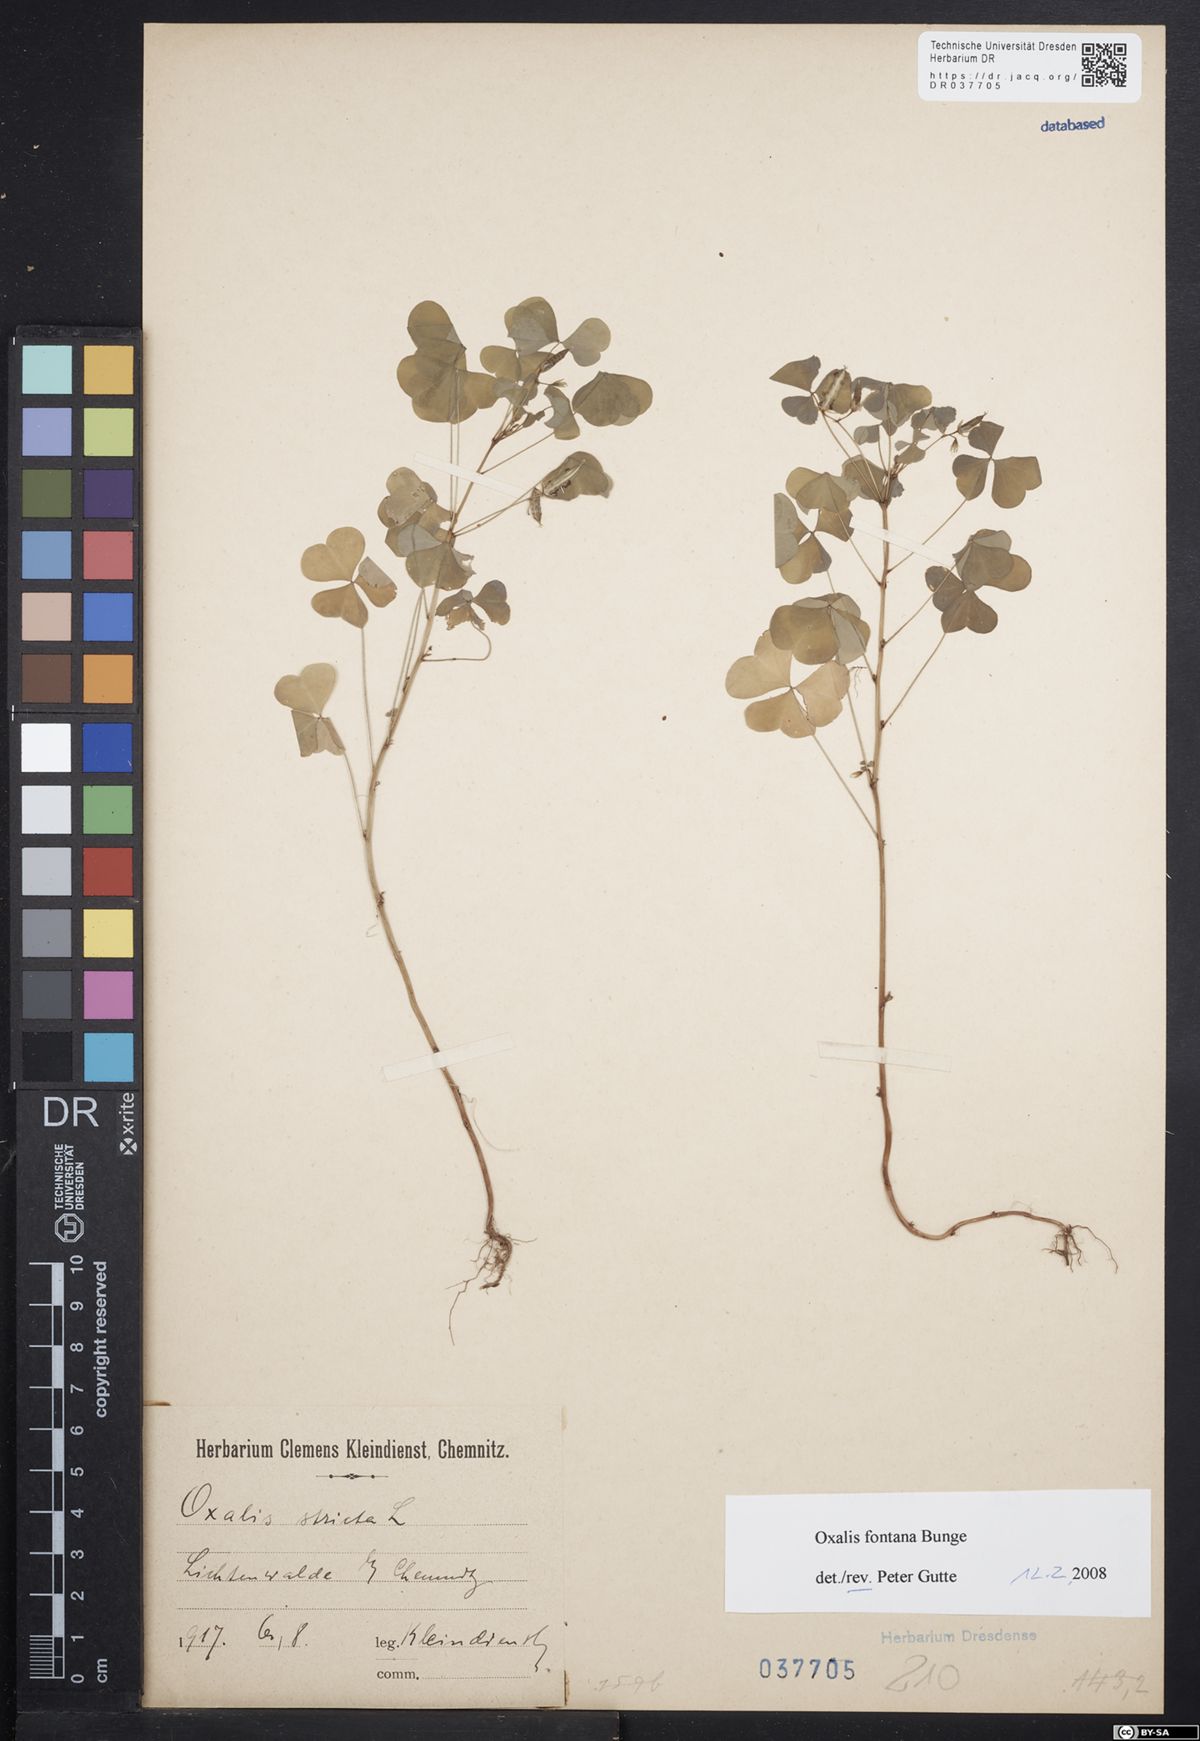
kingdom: Plantae
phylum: Tracheophyta
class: Magnoliopsida
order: Oxalidales
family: Oxalidaceae
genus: Oxalis
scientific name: Oxalis stricta
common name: Upright yellow-sorrel
